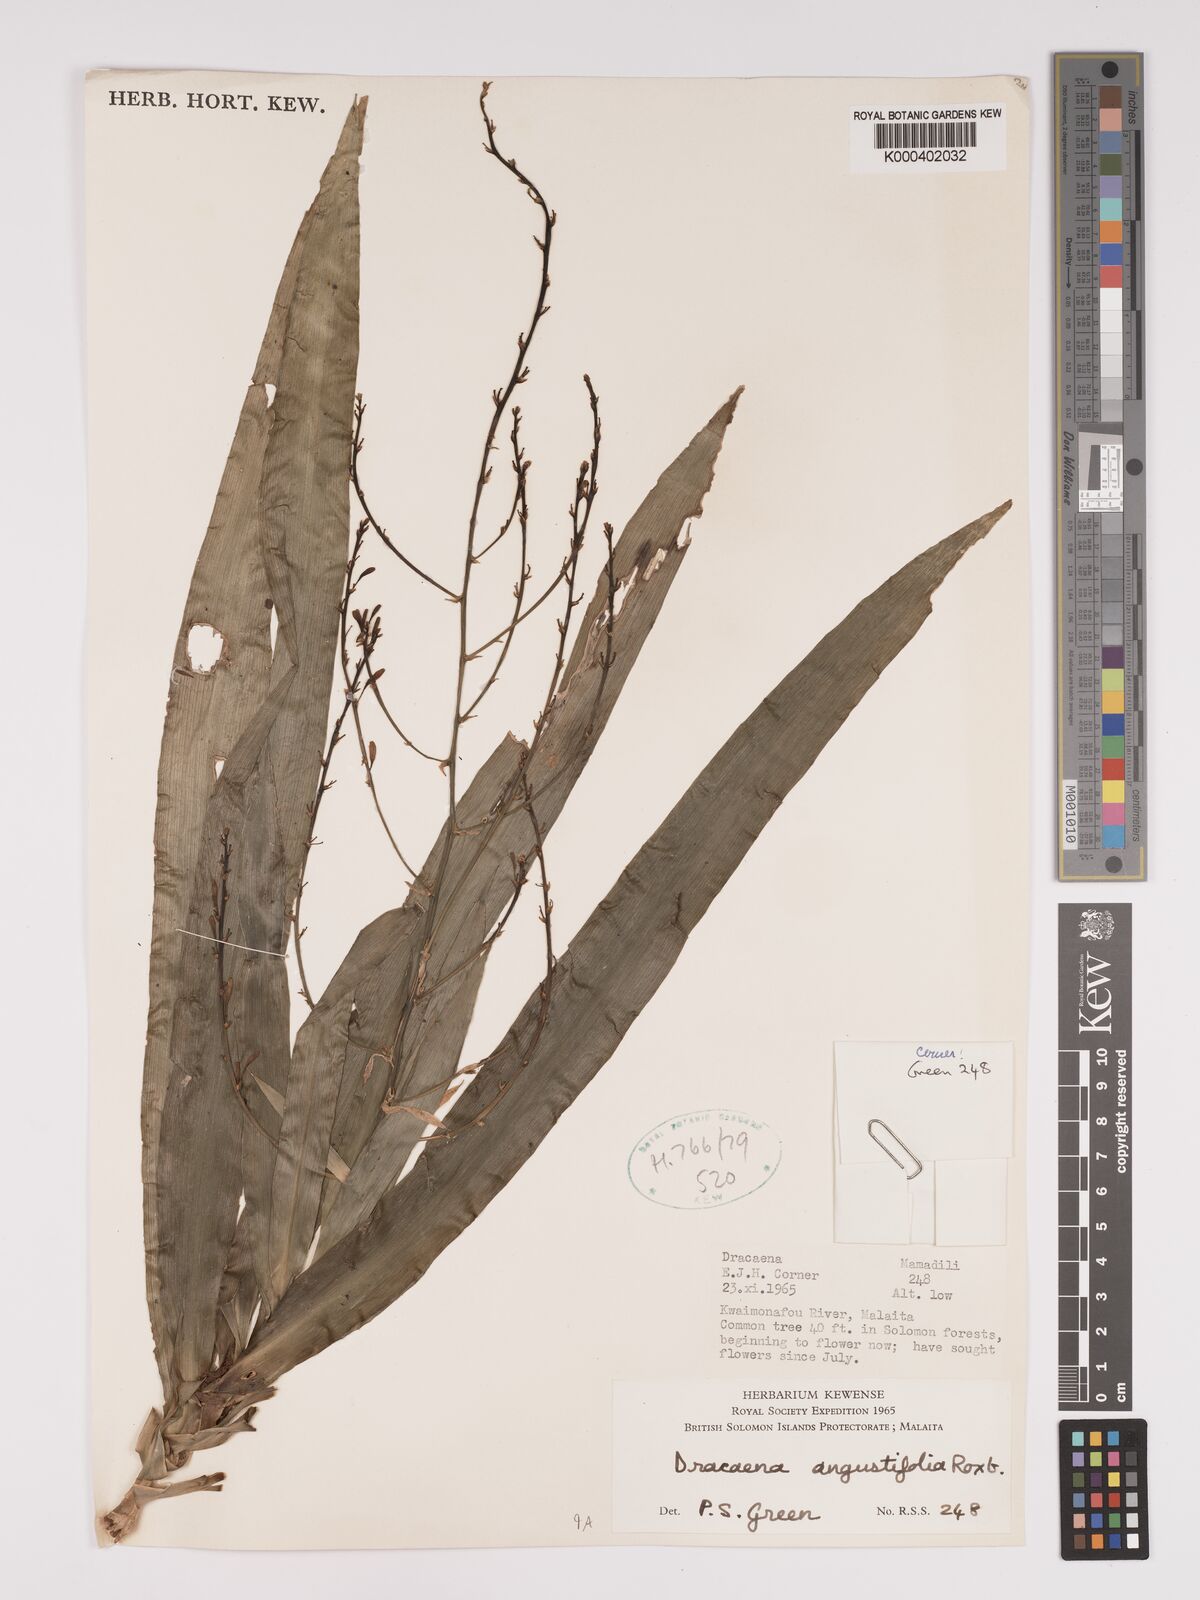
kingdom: Plantae
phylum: Tracheophyta
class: Liliopsida
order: Asparagales
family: Asparagaceae
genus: Dracaena
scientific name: Dracaena angustifolia
